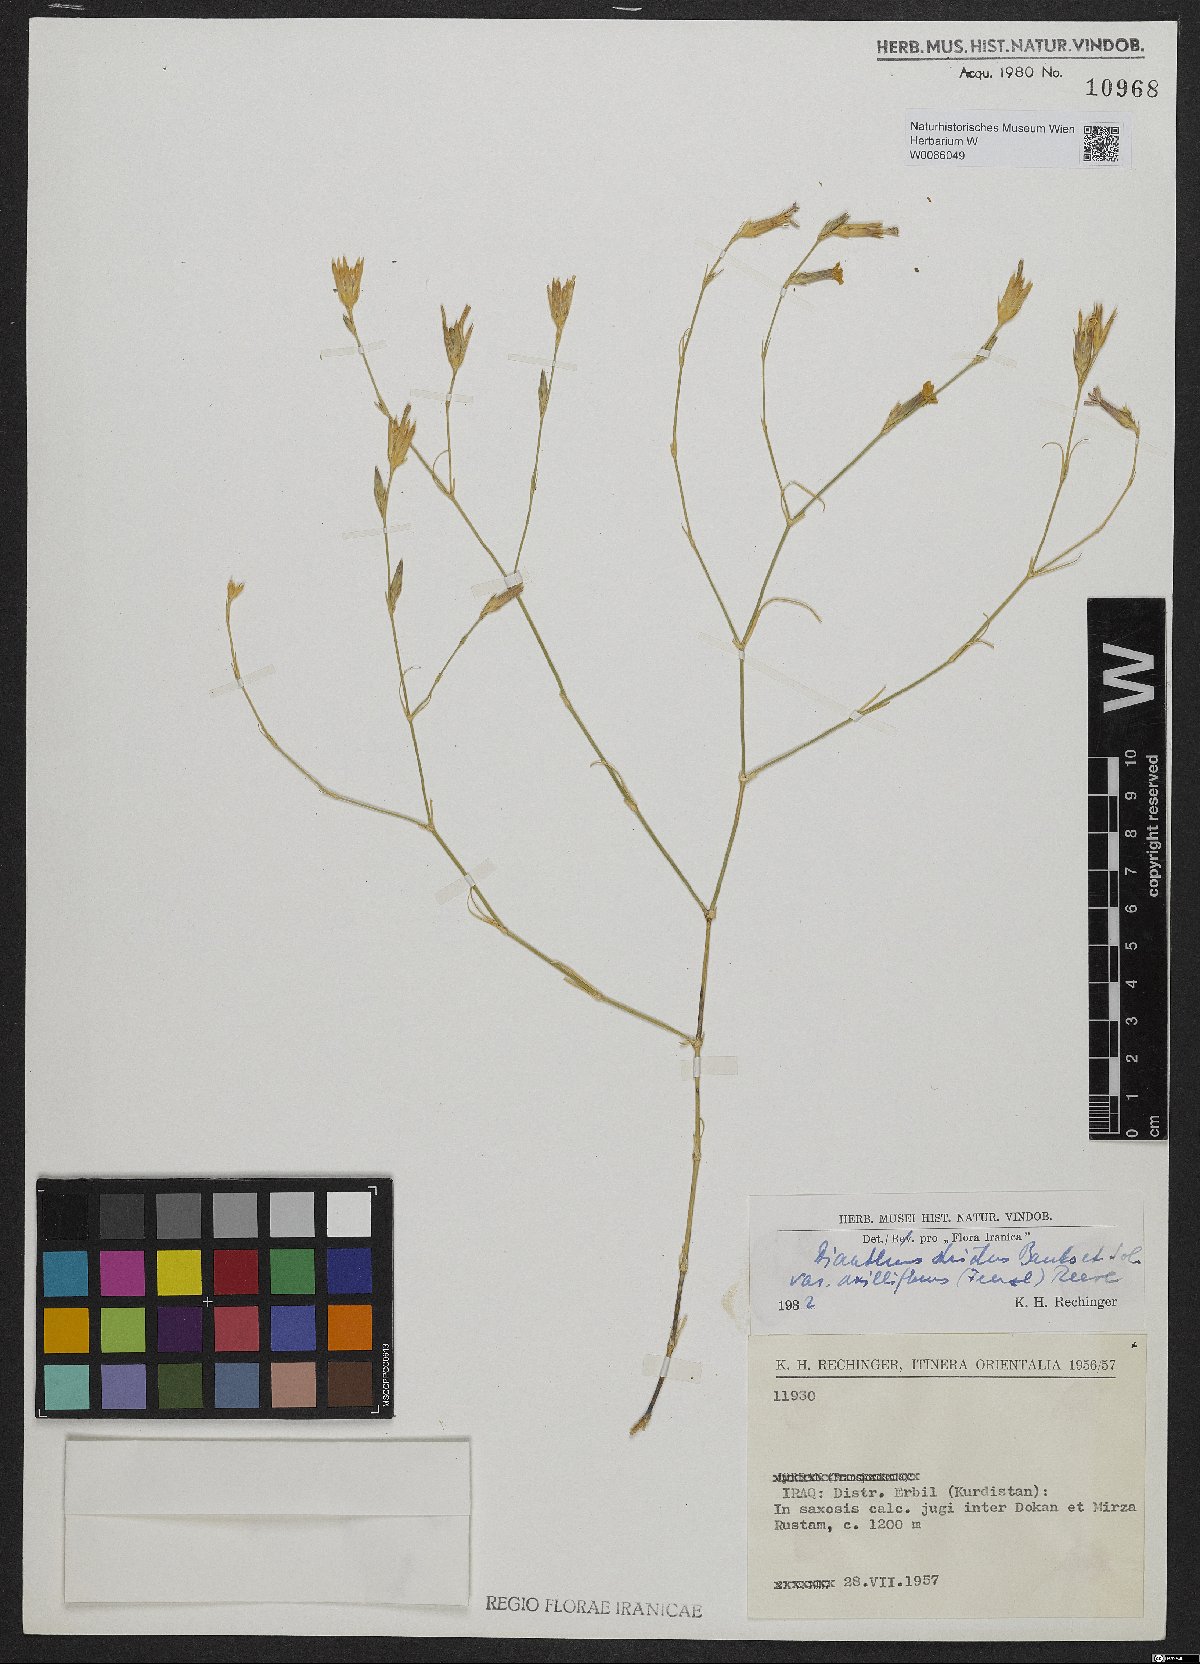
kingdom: Plantae
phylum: Tracheophyta
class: Magnoliopsida
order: Caryophyllales
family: Caryophyllaceae
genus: Dianthus
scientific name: Dianthus strictus
